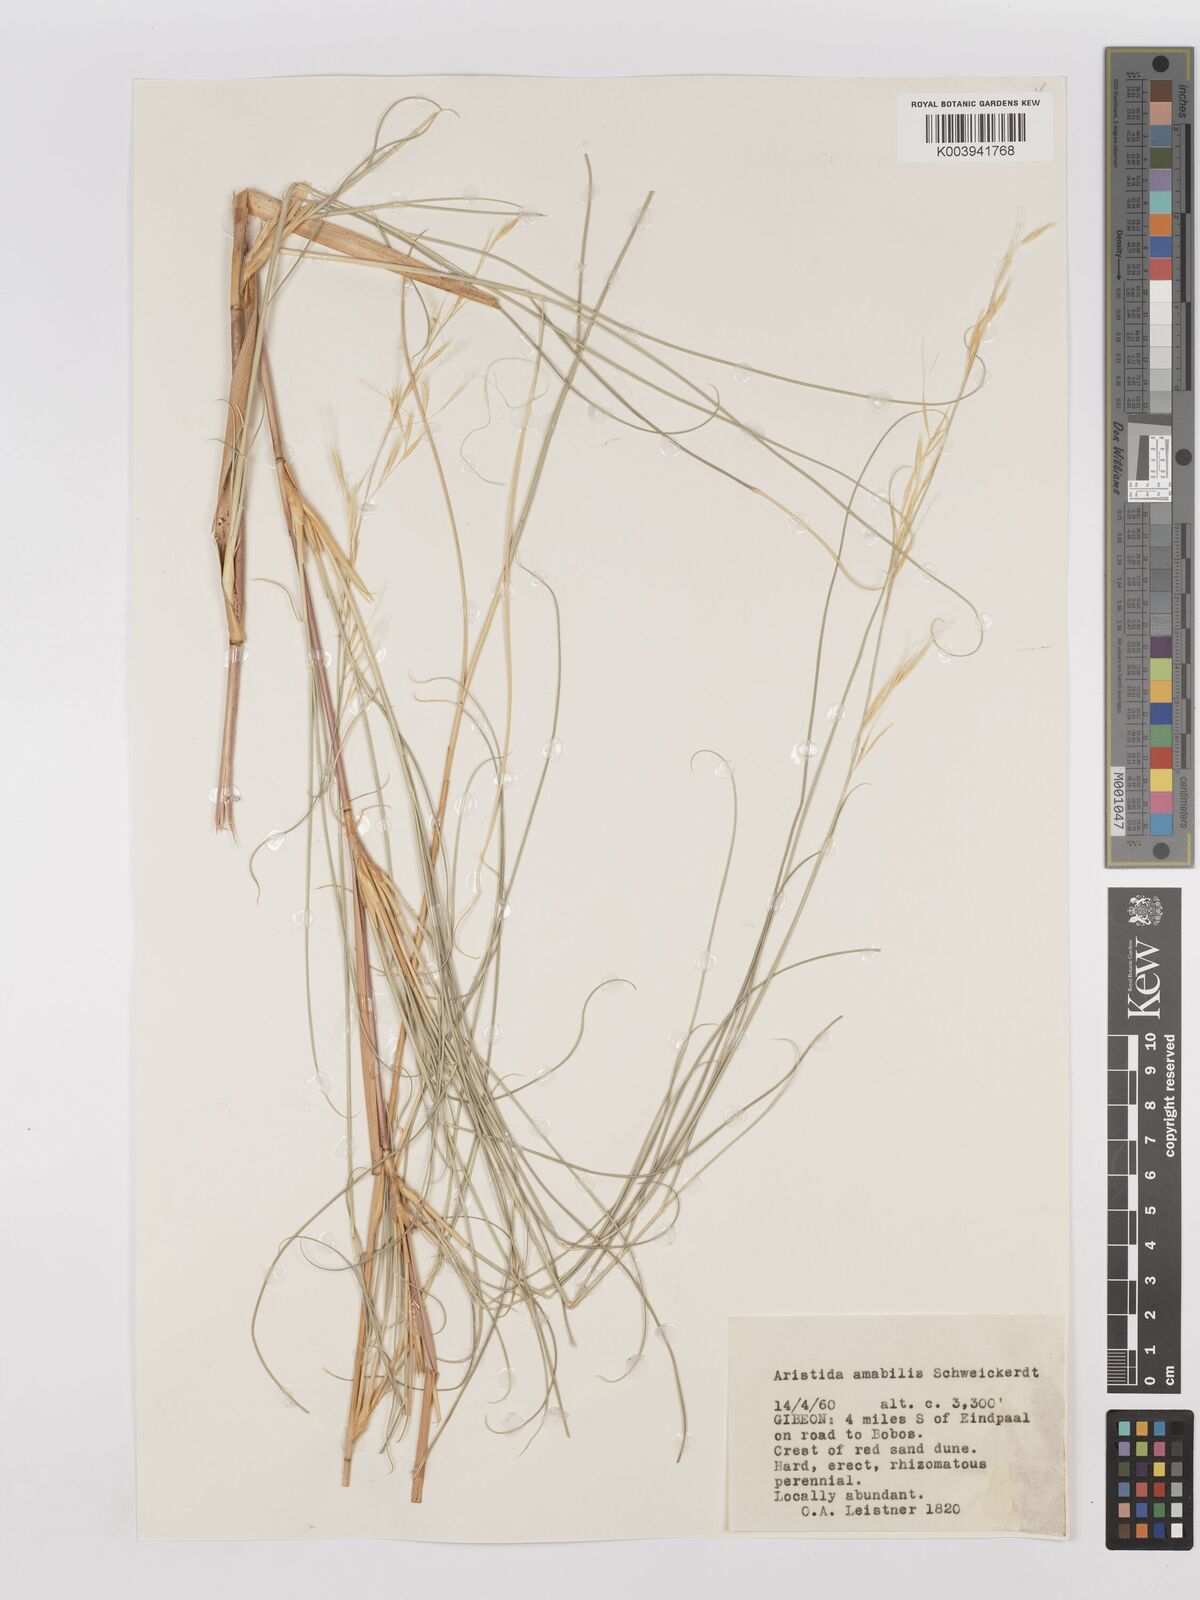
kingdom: Plantae
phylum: Tracheophyta
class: Liliopsida
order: Poales
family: Poaceae
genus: Stipagrostis
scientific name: Stipagrostis amabilis
